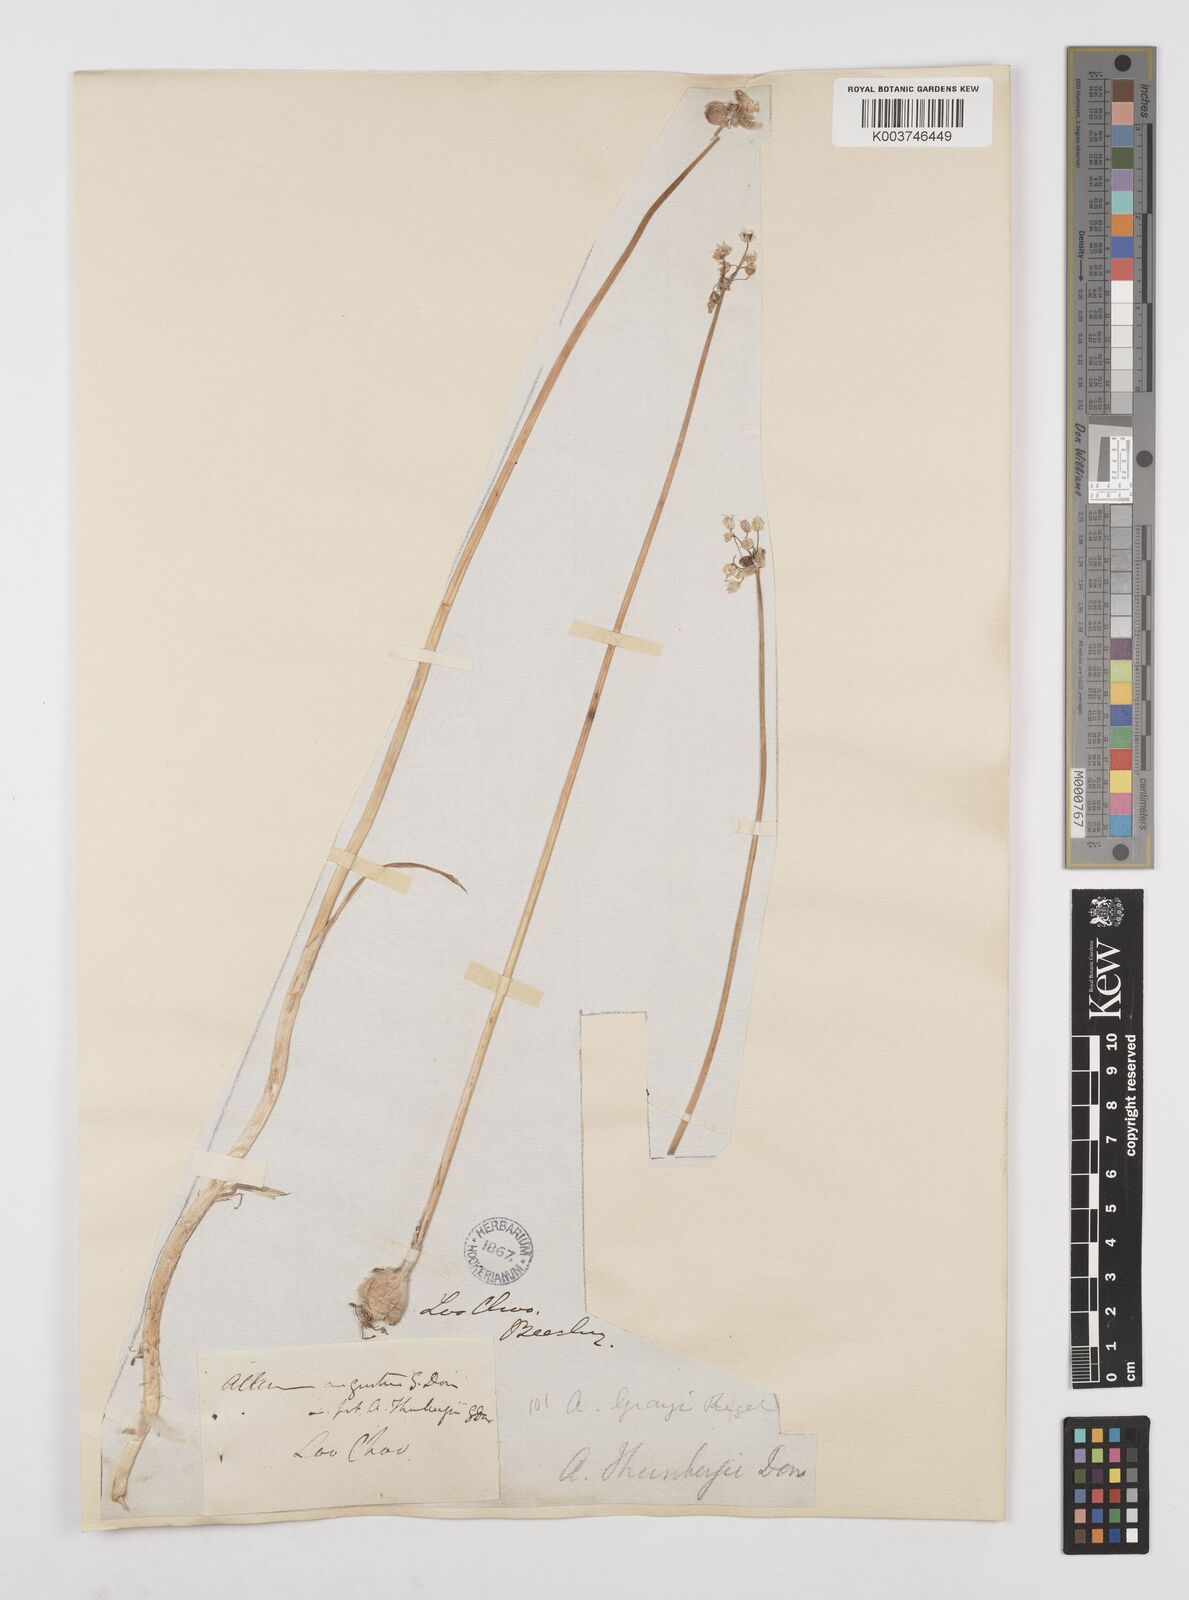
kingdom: Plantae
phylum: Tracheophyta
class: Liliopsida
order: Asparagales
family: Amaryllidaceae
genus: Allium
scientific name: Allium macrostemon
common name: Chinese garlic
